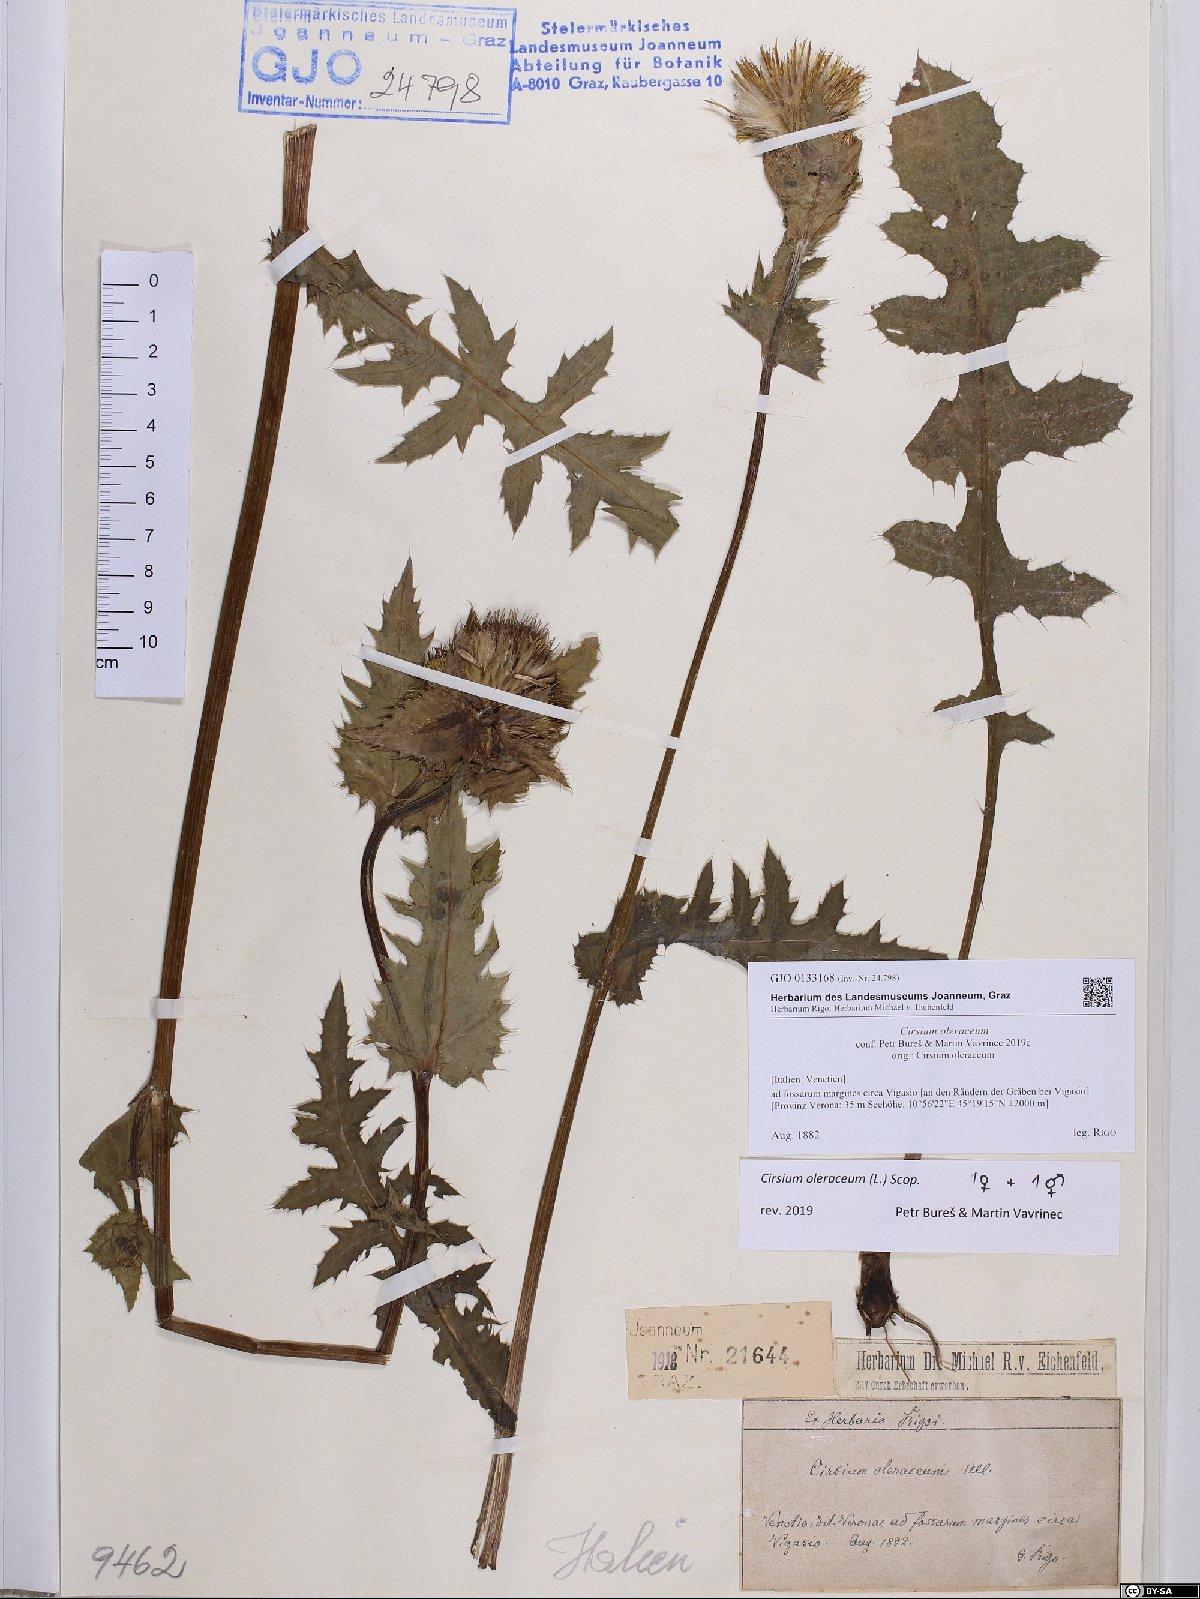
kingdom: Plantae
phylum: Tracheophyta
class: Magnoliopsida
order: Asterales
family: Asteraceae
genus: Cirsium
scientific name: Cirsium oleraceum
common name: Cabbage thistle
